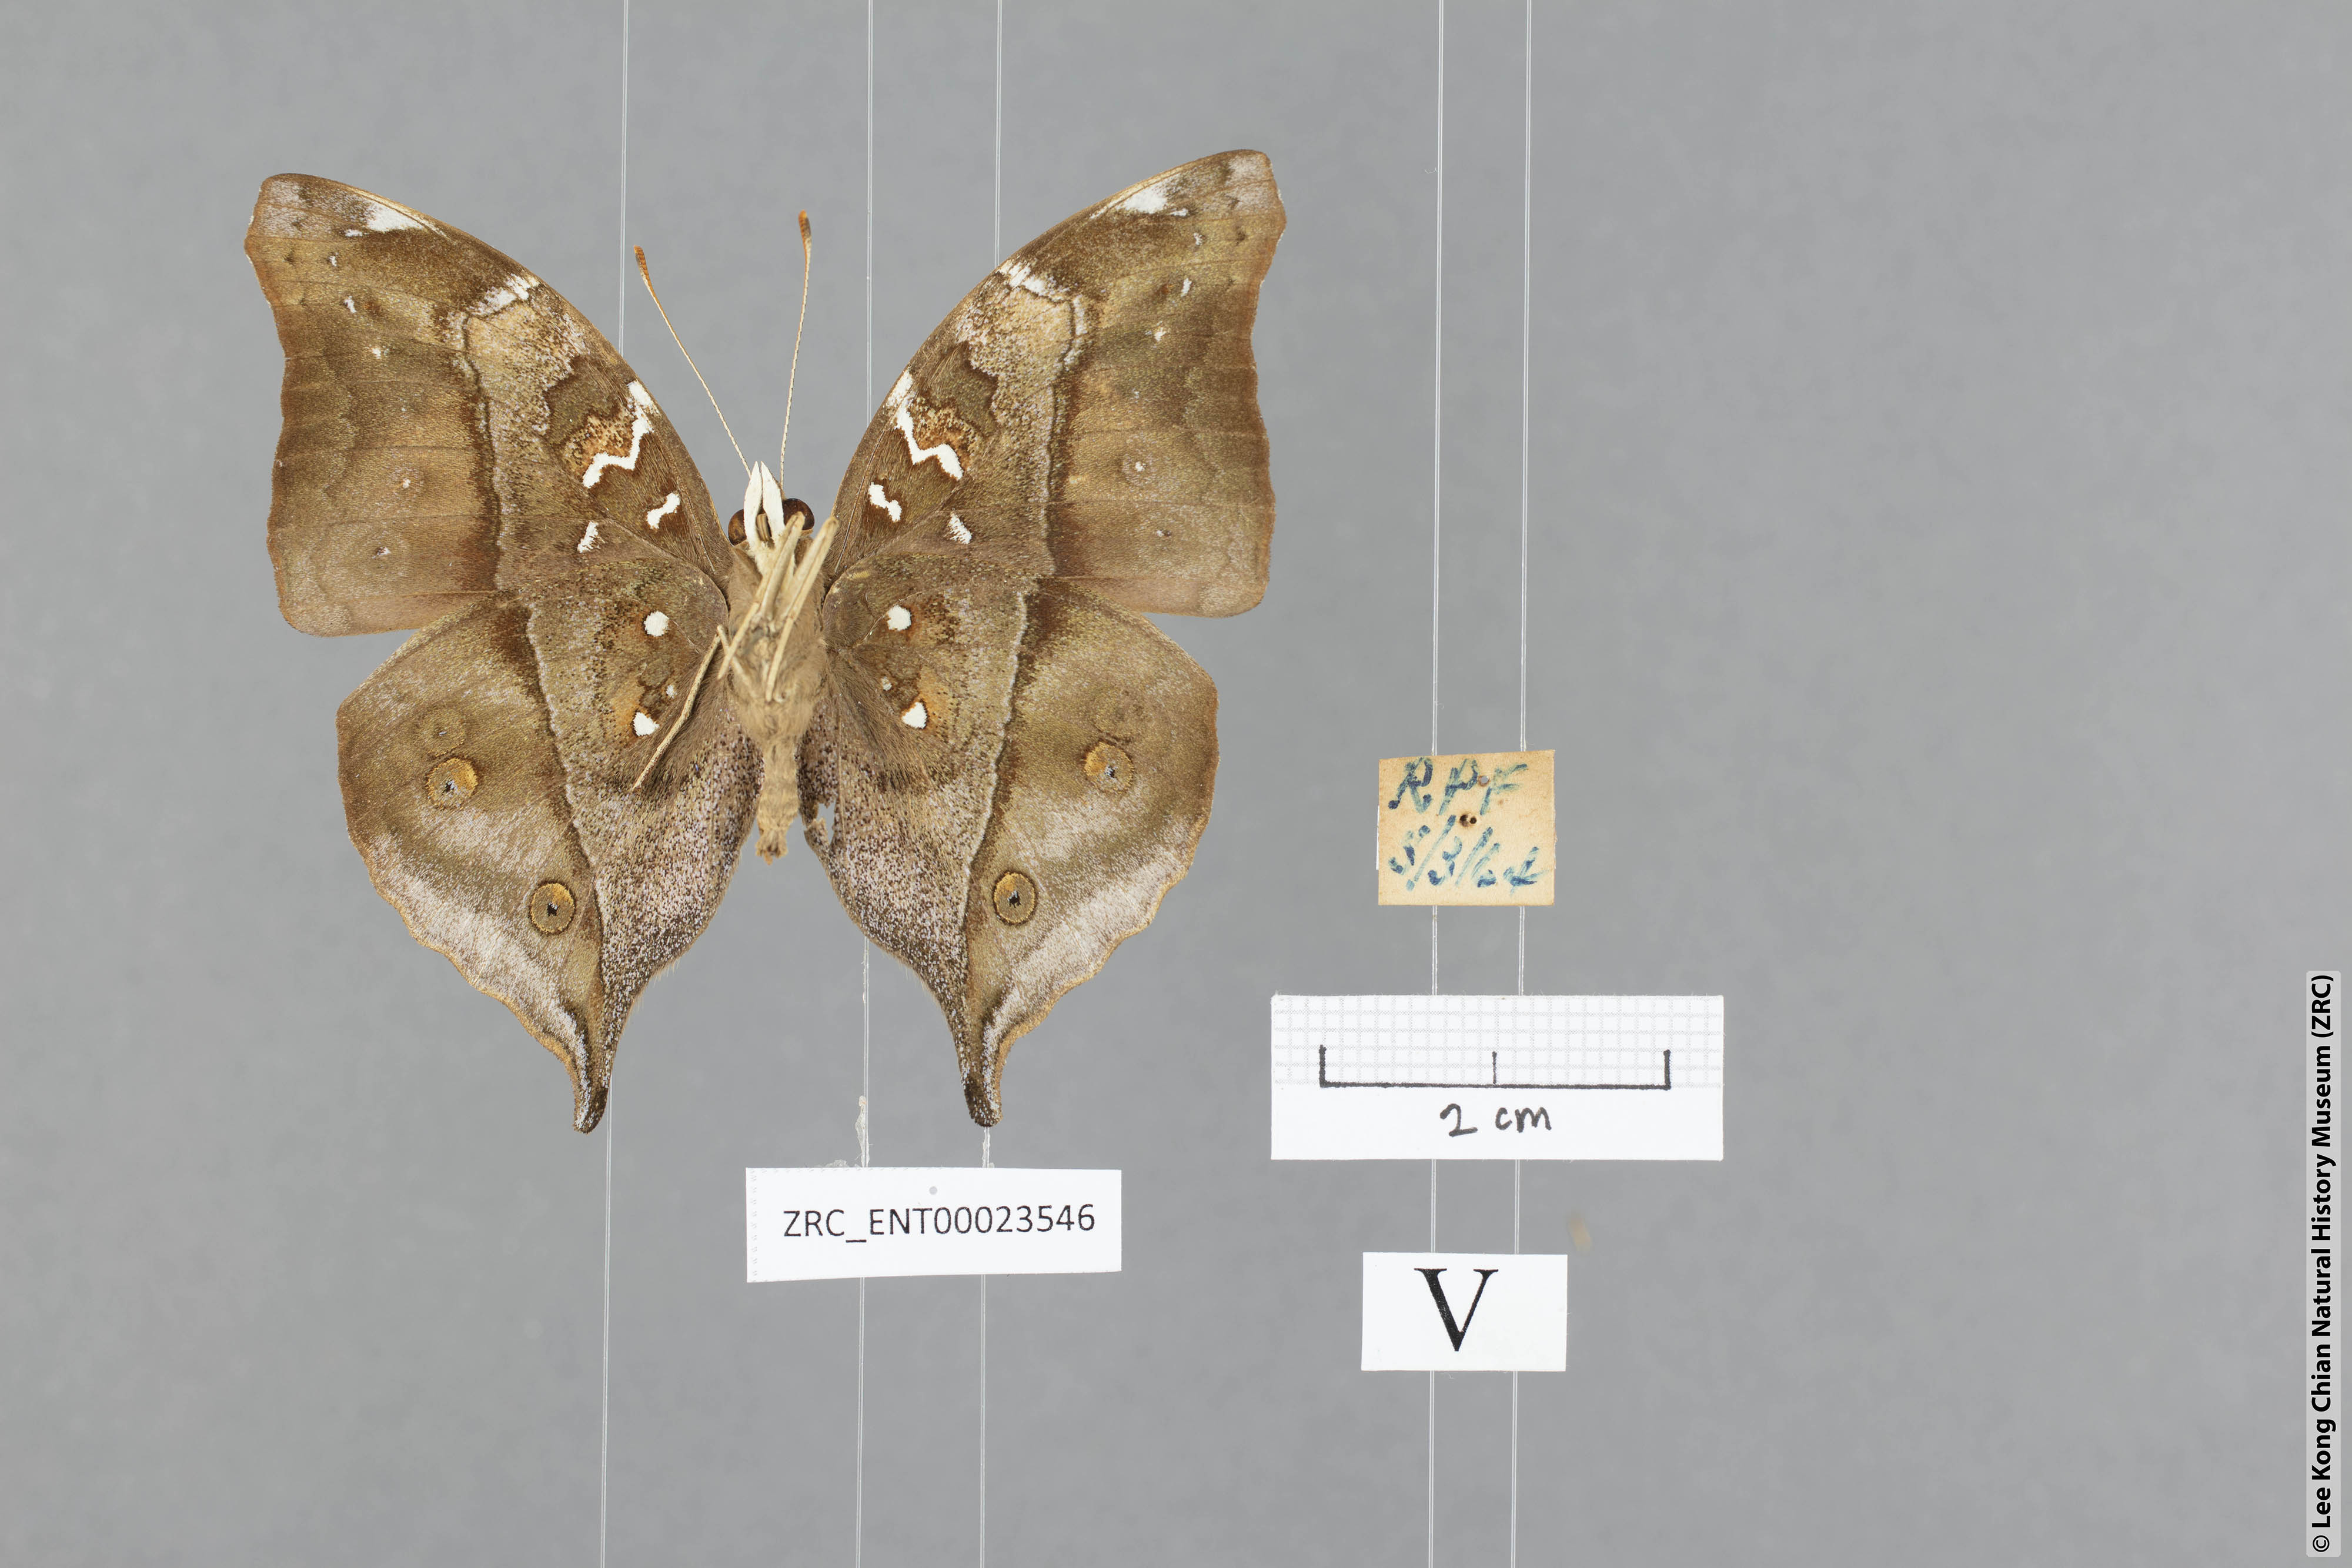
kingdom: Animalia
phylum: Arthropoda
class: Insecta
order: Lepidoptera
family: Nymphalidae
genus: Doleschallia
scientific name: Doleschallia bisaltide
